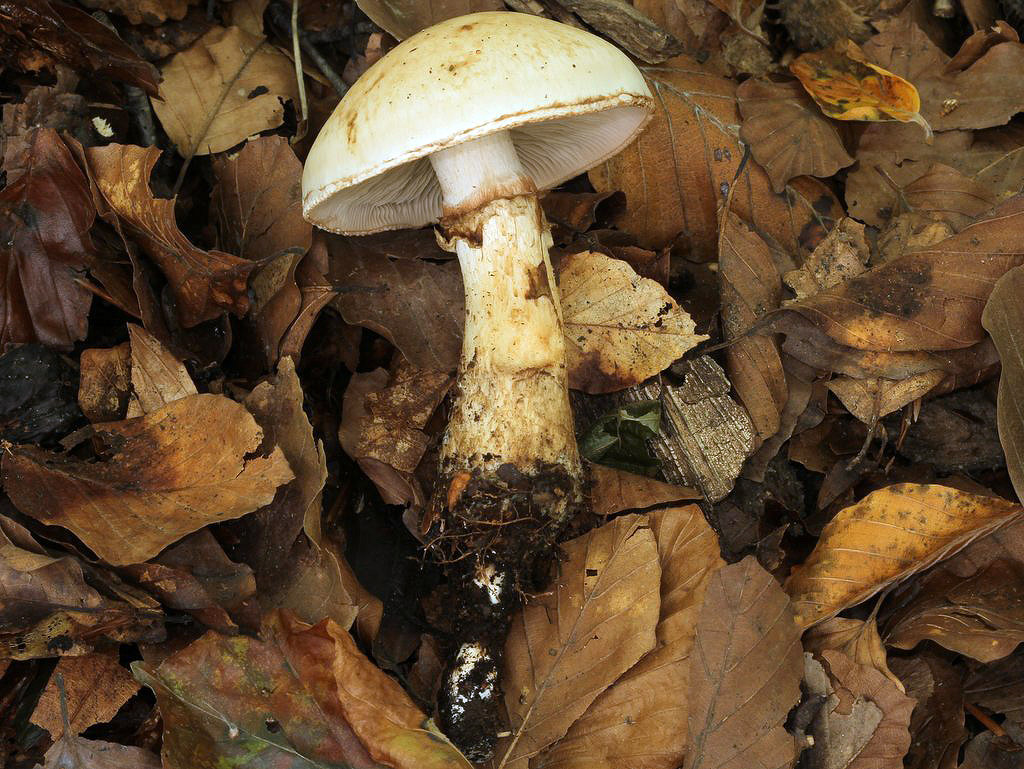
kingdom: Fungi
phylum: Basidiomycota
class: Agaricomycetes
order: Agaricales
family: Hymenogastraceae
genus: Hebeloma
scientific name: Hebeloma radicosum
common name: pælerods-tåreblad
